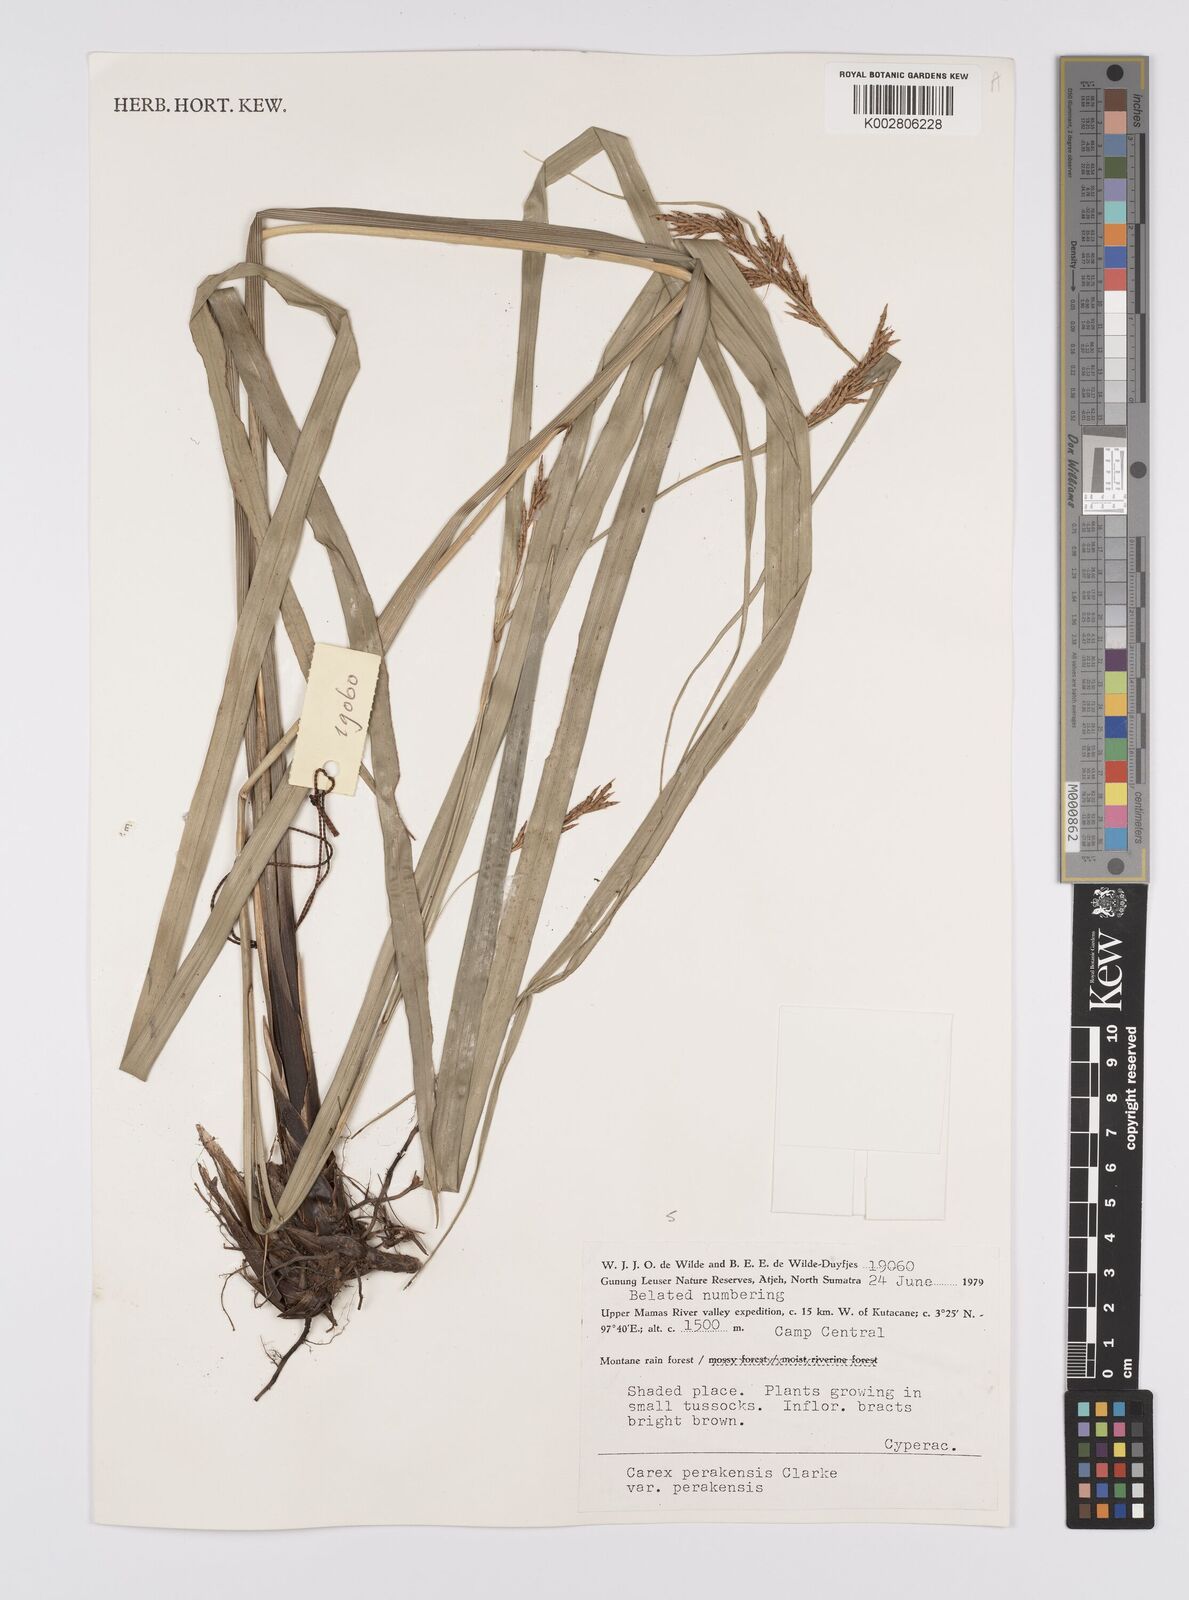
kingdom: Plantae
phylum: Tracheophyta
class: Liliopsida
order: Poales
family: Cyperaceae
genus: Carex
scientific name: Carex perakensis
